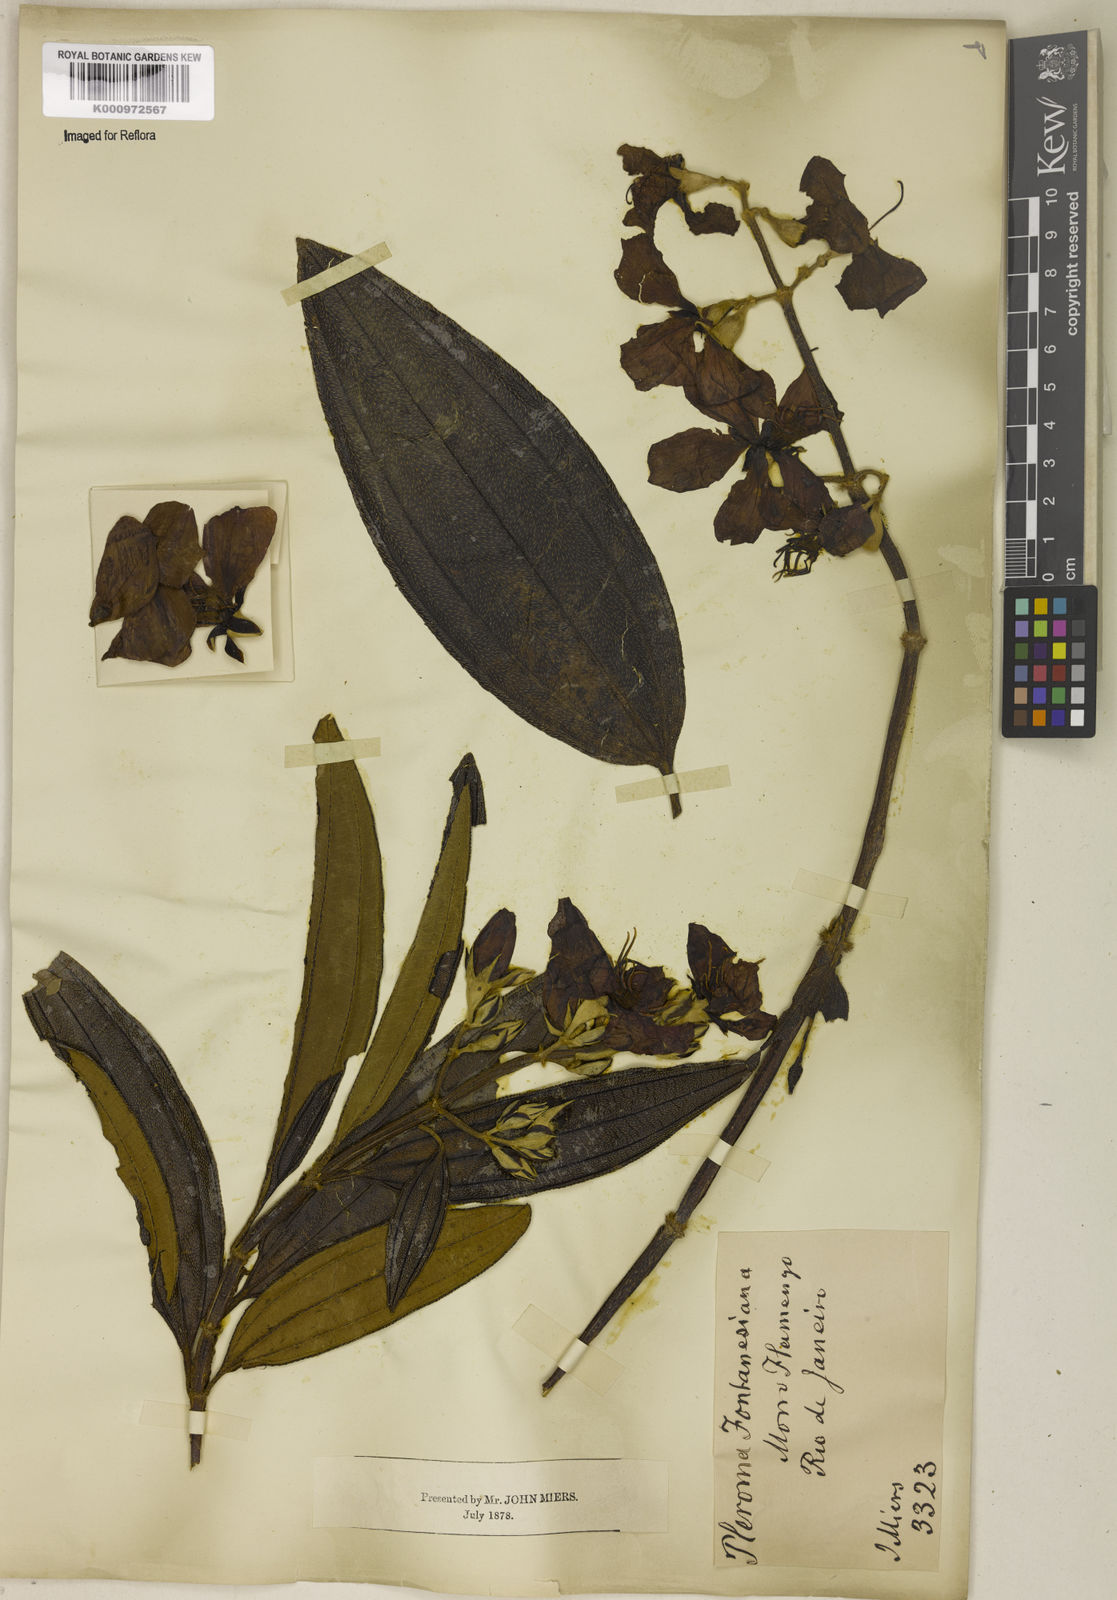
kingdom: Plantae
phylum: Tracheophyta
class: Magnoliopsida
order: Myrtales
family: Melastomataceae
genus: Pleroma
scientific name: Pleroma granulosum
